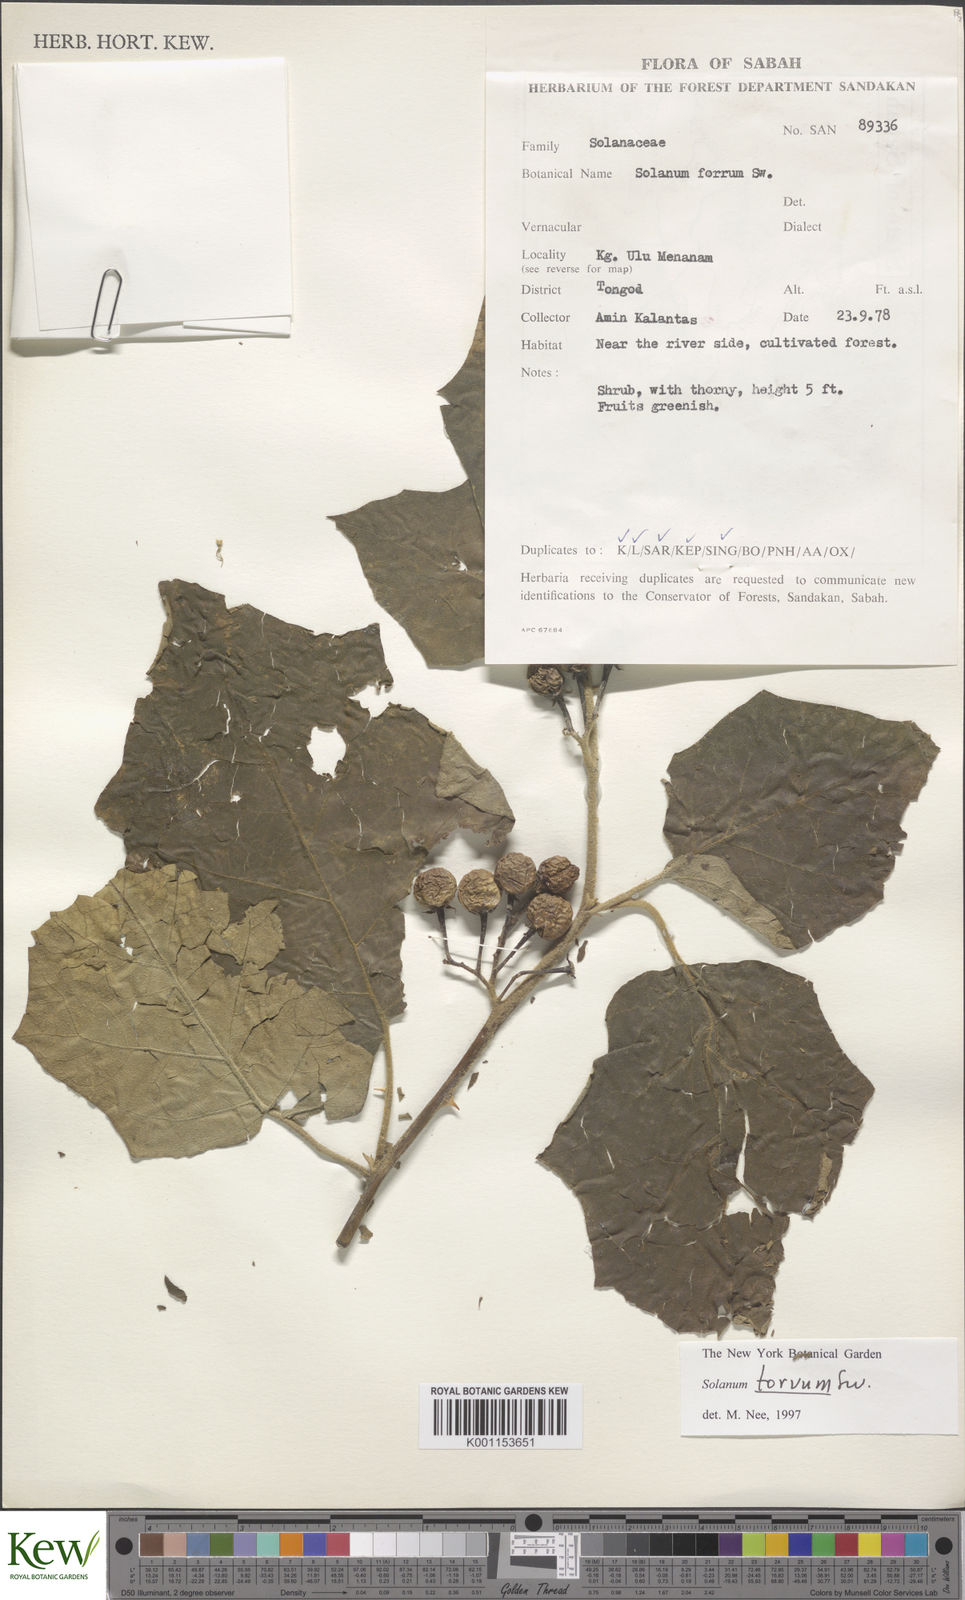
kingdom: Plantae
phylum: Tracheophyta
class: Magnoliopsida
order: Solanales
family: Solanaceae
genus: Solanum
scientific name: Solanum torvum
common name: Turkey berry
